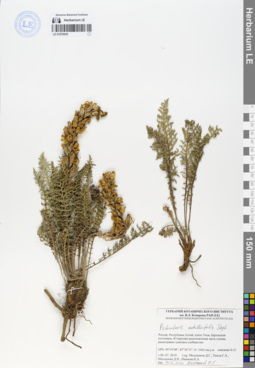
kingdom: Plantae
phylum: Tracheophyta
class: Magnoliopsida
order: Lamiales
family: Orobanchaceae
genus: Pedicularis
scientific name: Pedicularis achilleifolia
